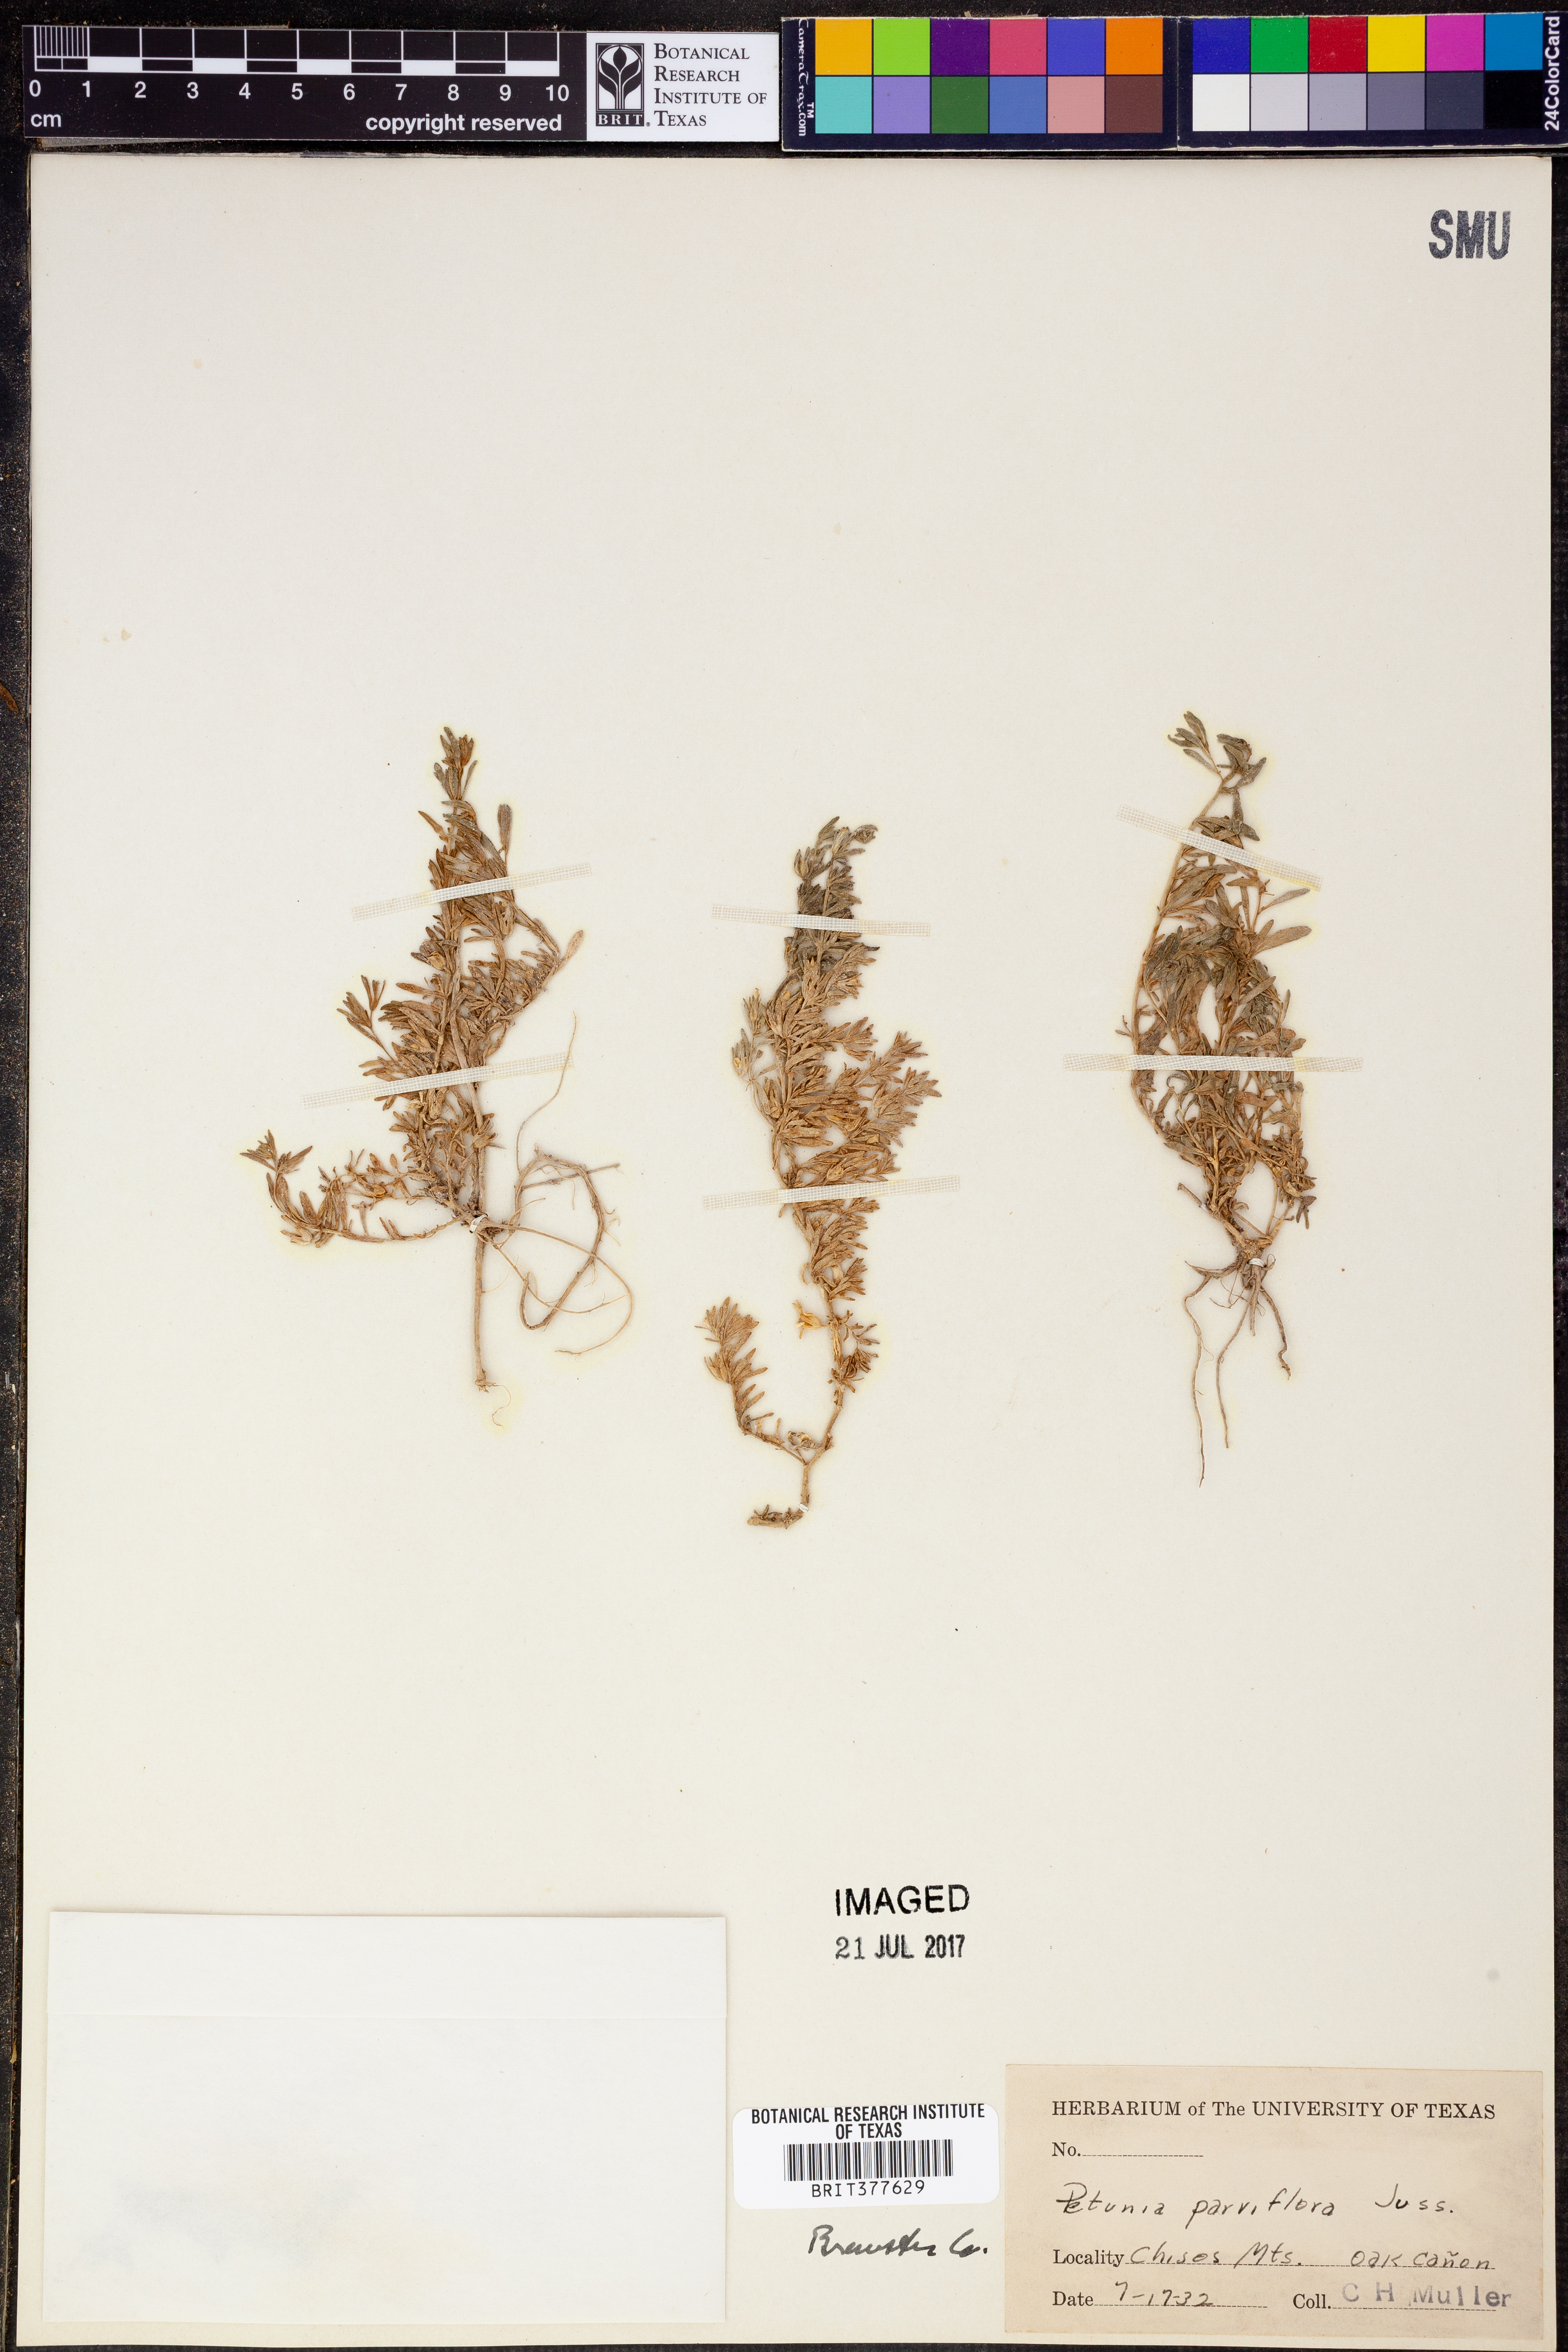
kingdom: Plantae
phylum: Tracheophyta
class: Magnoliopsida
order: Solanales
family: Solanaceae
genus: Calibrachoa
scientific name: Calibrachoa parviflora
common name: Seaside petunia
